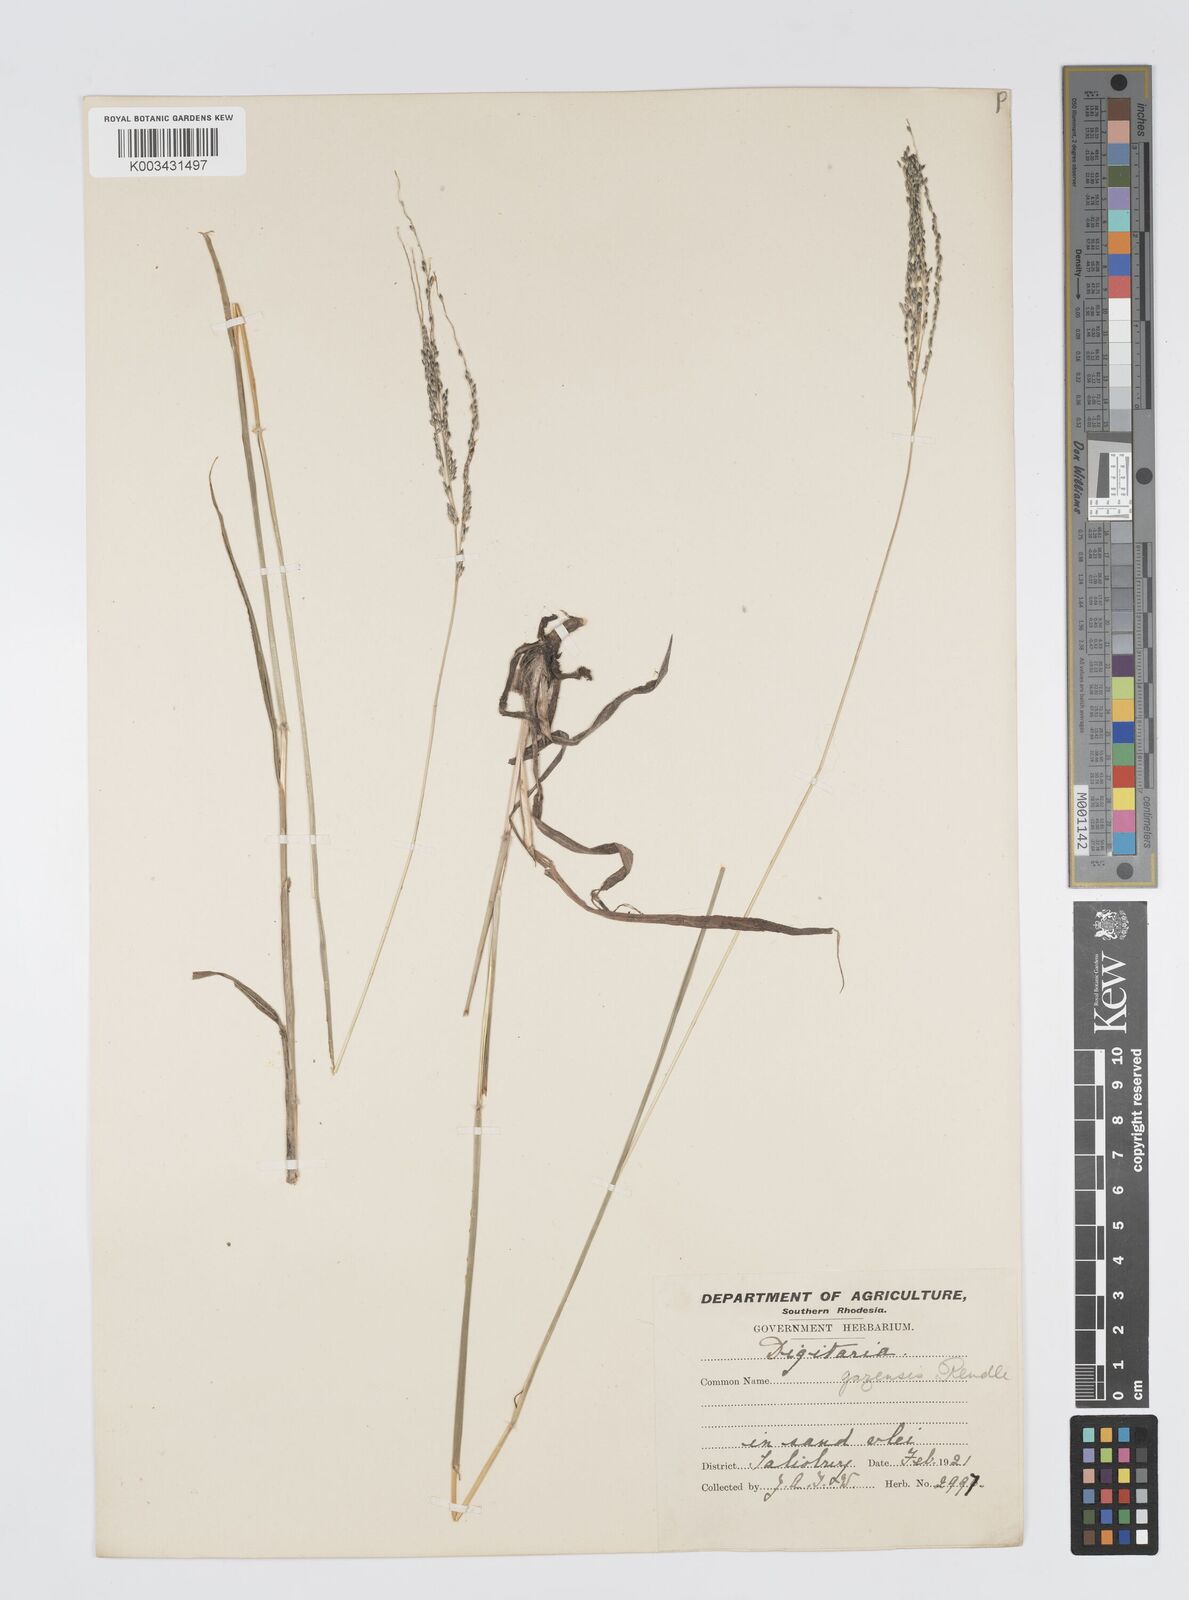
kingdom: Plantae
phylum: Tracheophyta
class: Liliopsida
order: Poales
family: Poaceae
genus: Digitaria
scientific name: Digitaria gazensis
